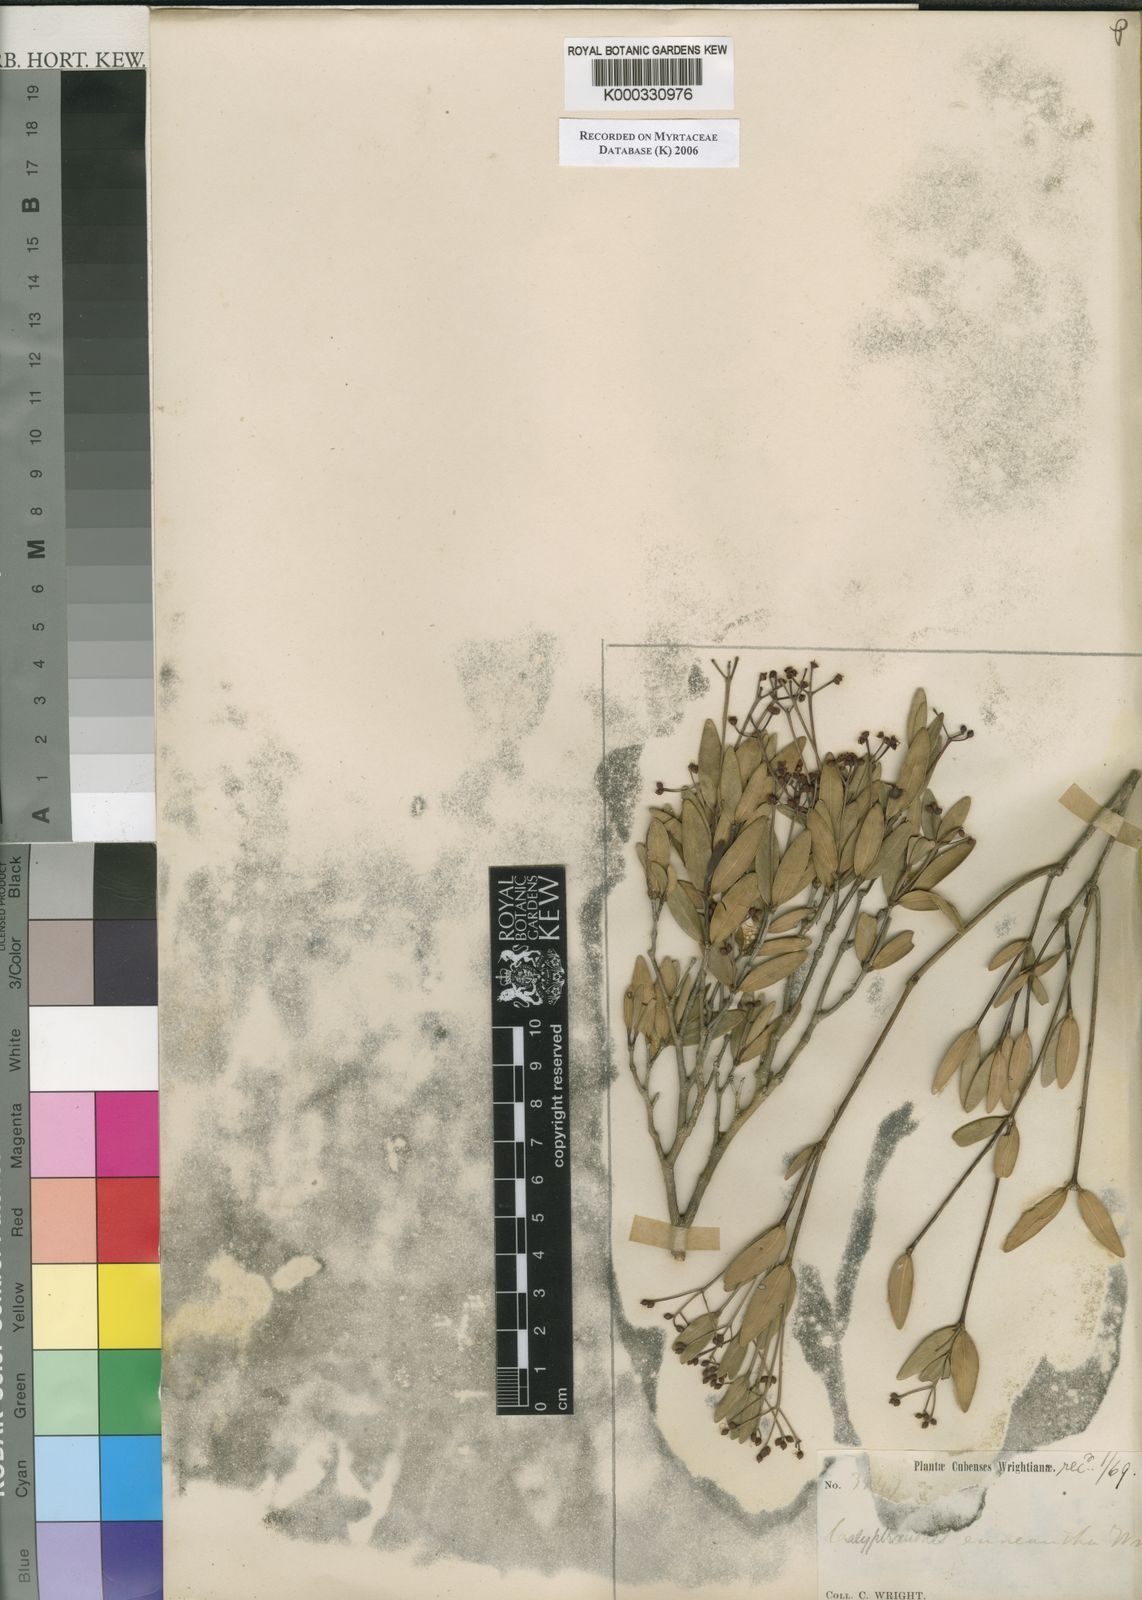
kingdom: Plantae
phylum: Tracheophyta
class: Magnoliopsida
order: Myrtales
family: Myrtaceae
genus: Myrcia
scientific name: Myrcia enneantha
